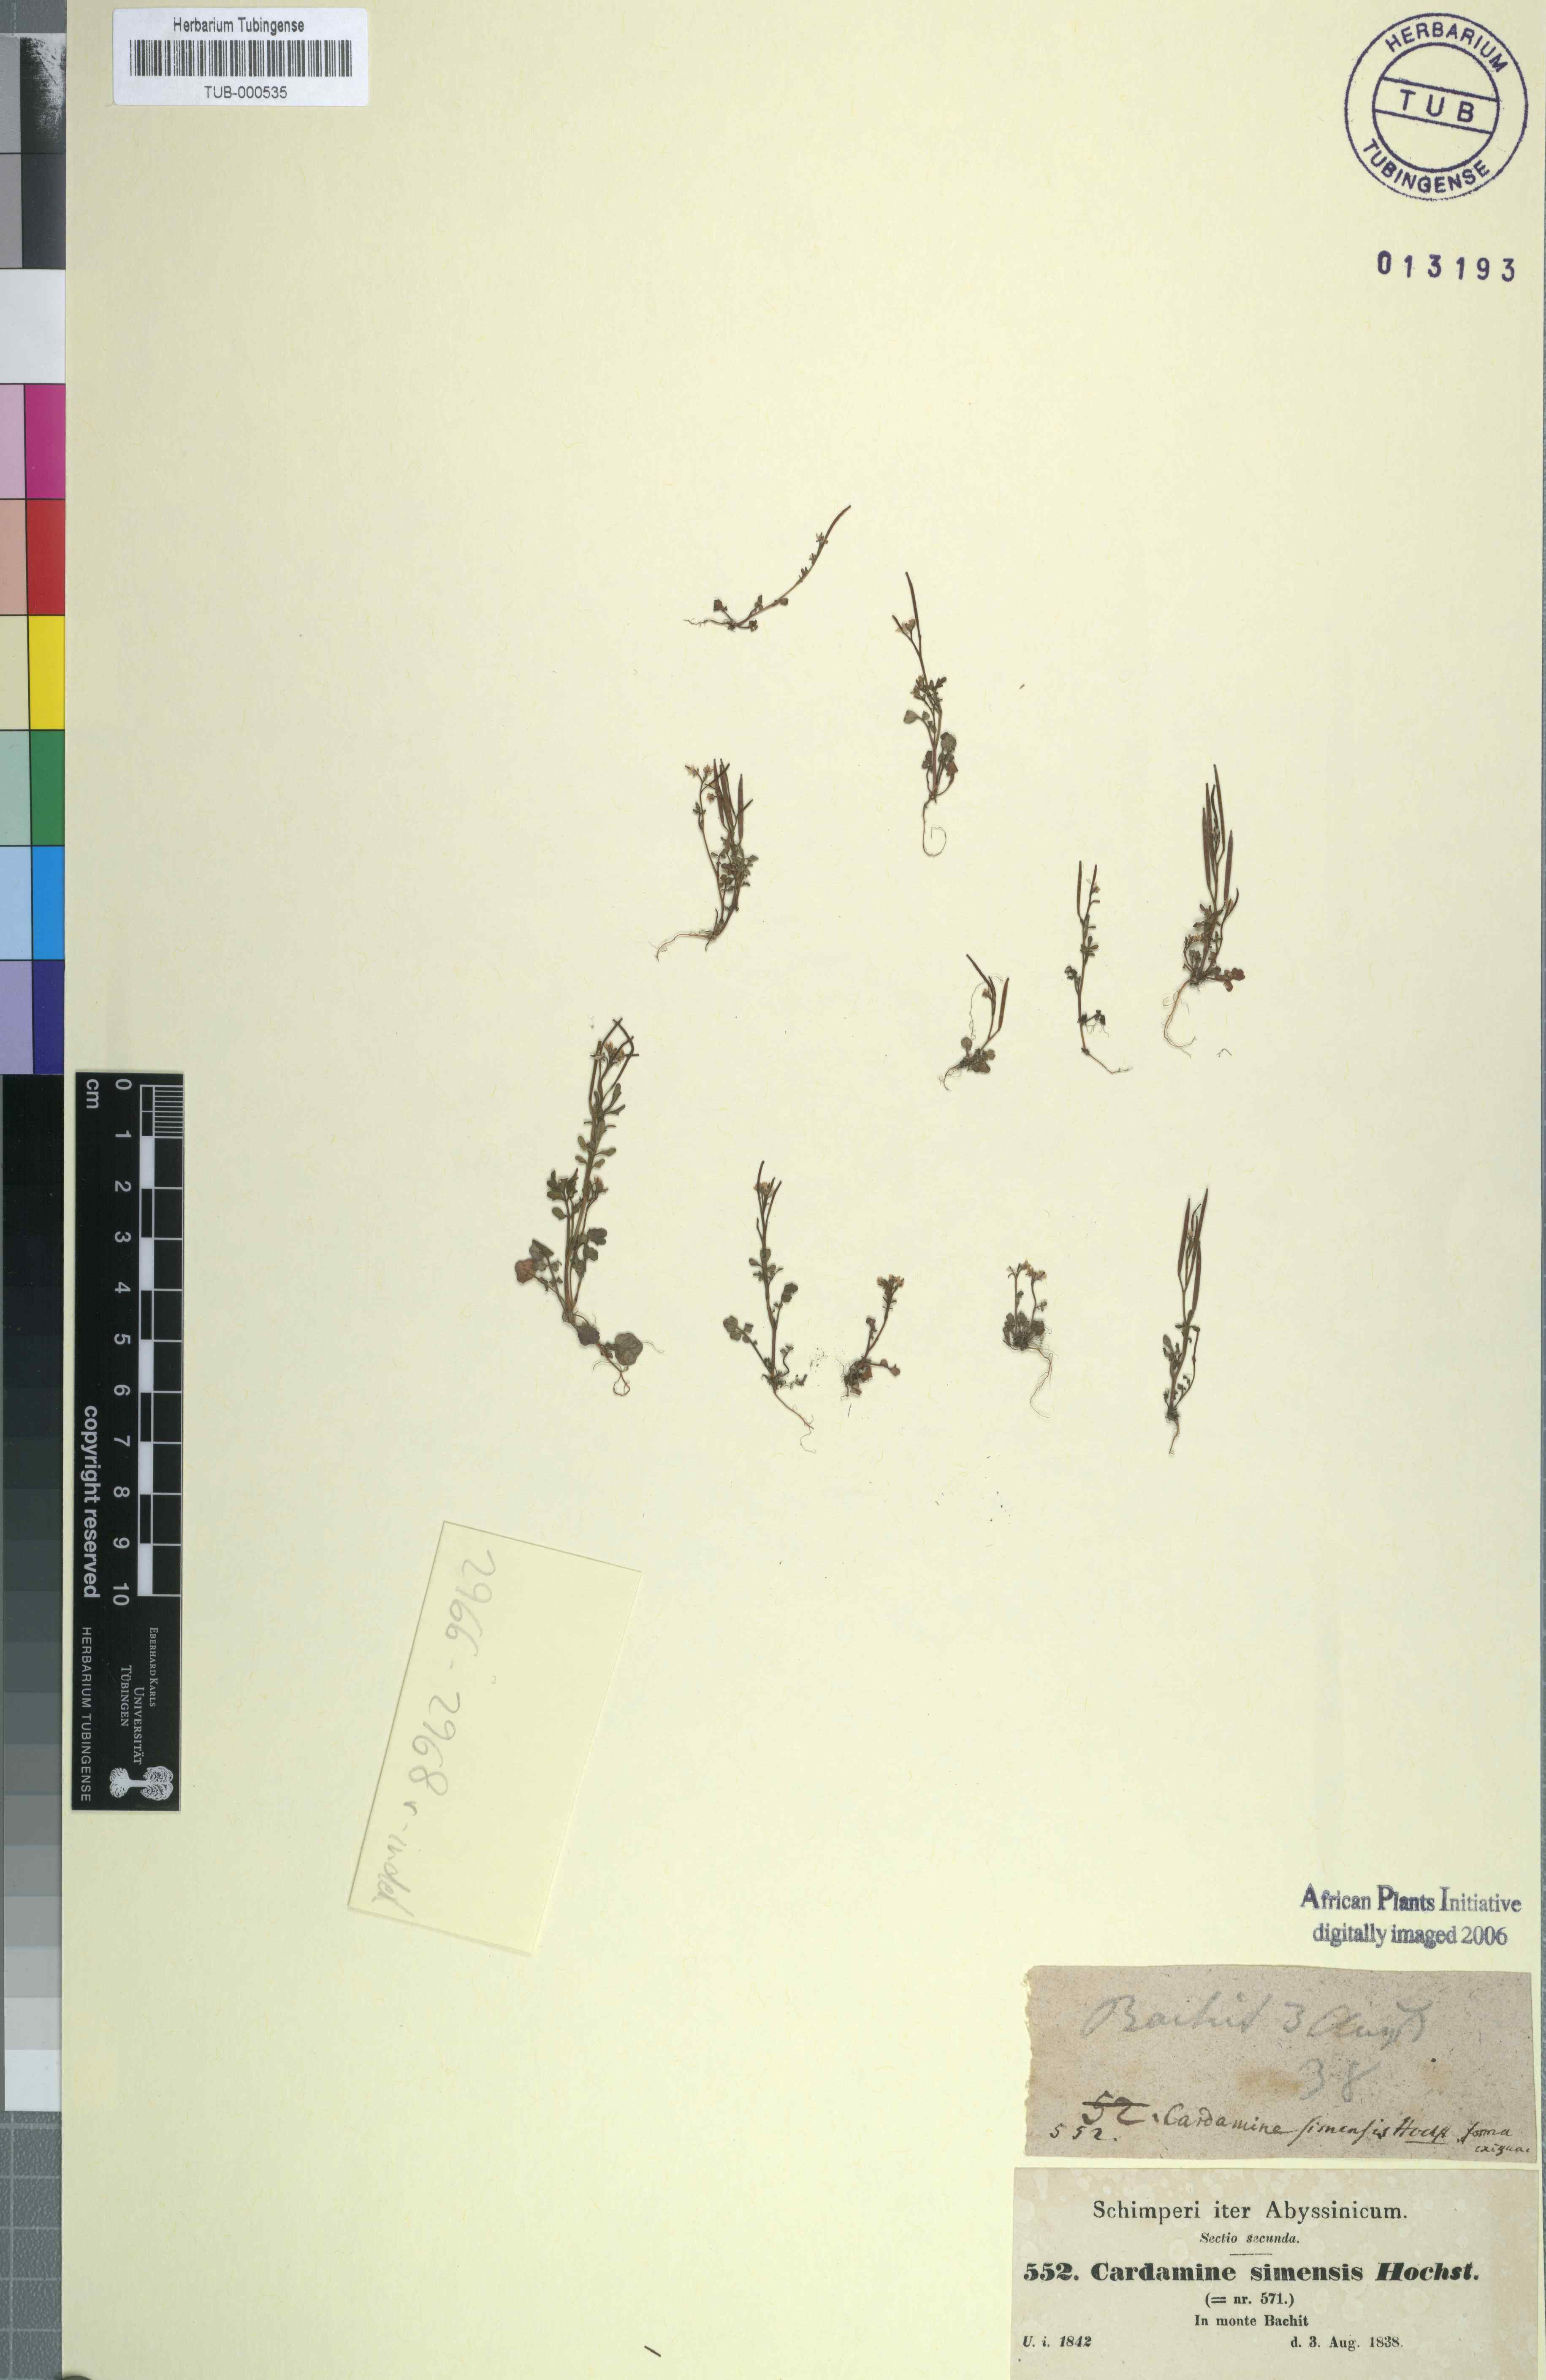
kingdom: Plantae
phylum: Tracheophyta
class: Magnoliopsida
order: Brassicales
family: Brassicaceae
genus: Cardamine
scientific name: Cardamine hirsuta
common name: Hairy bittercress
